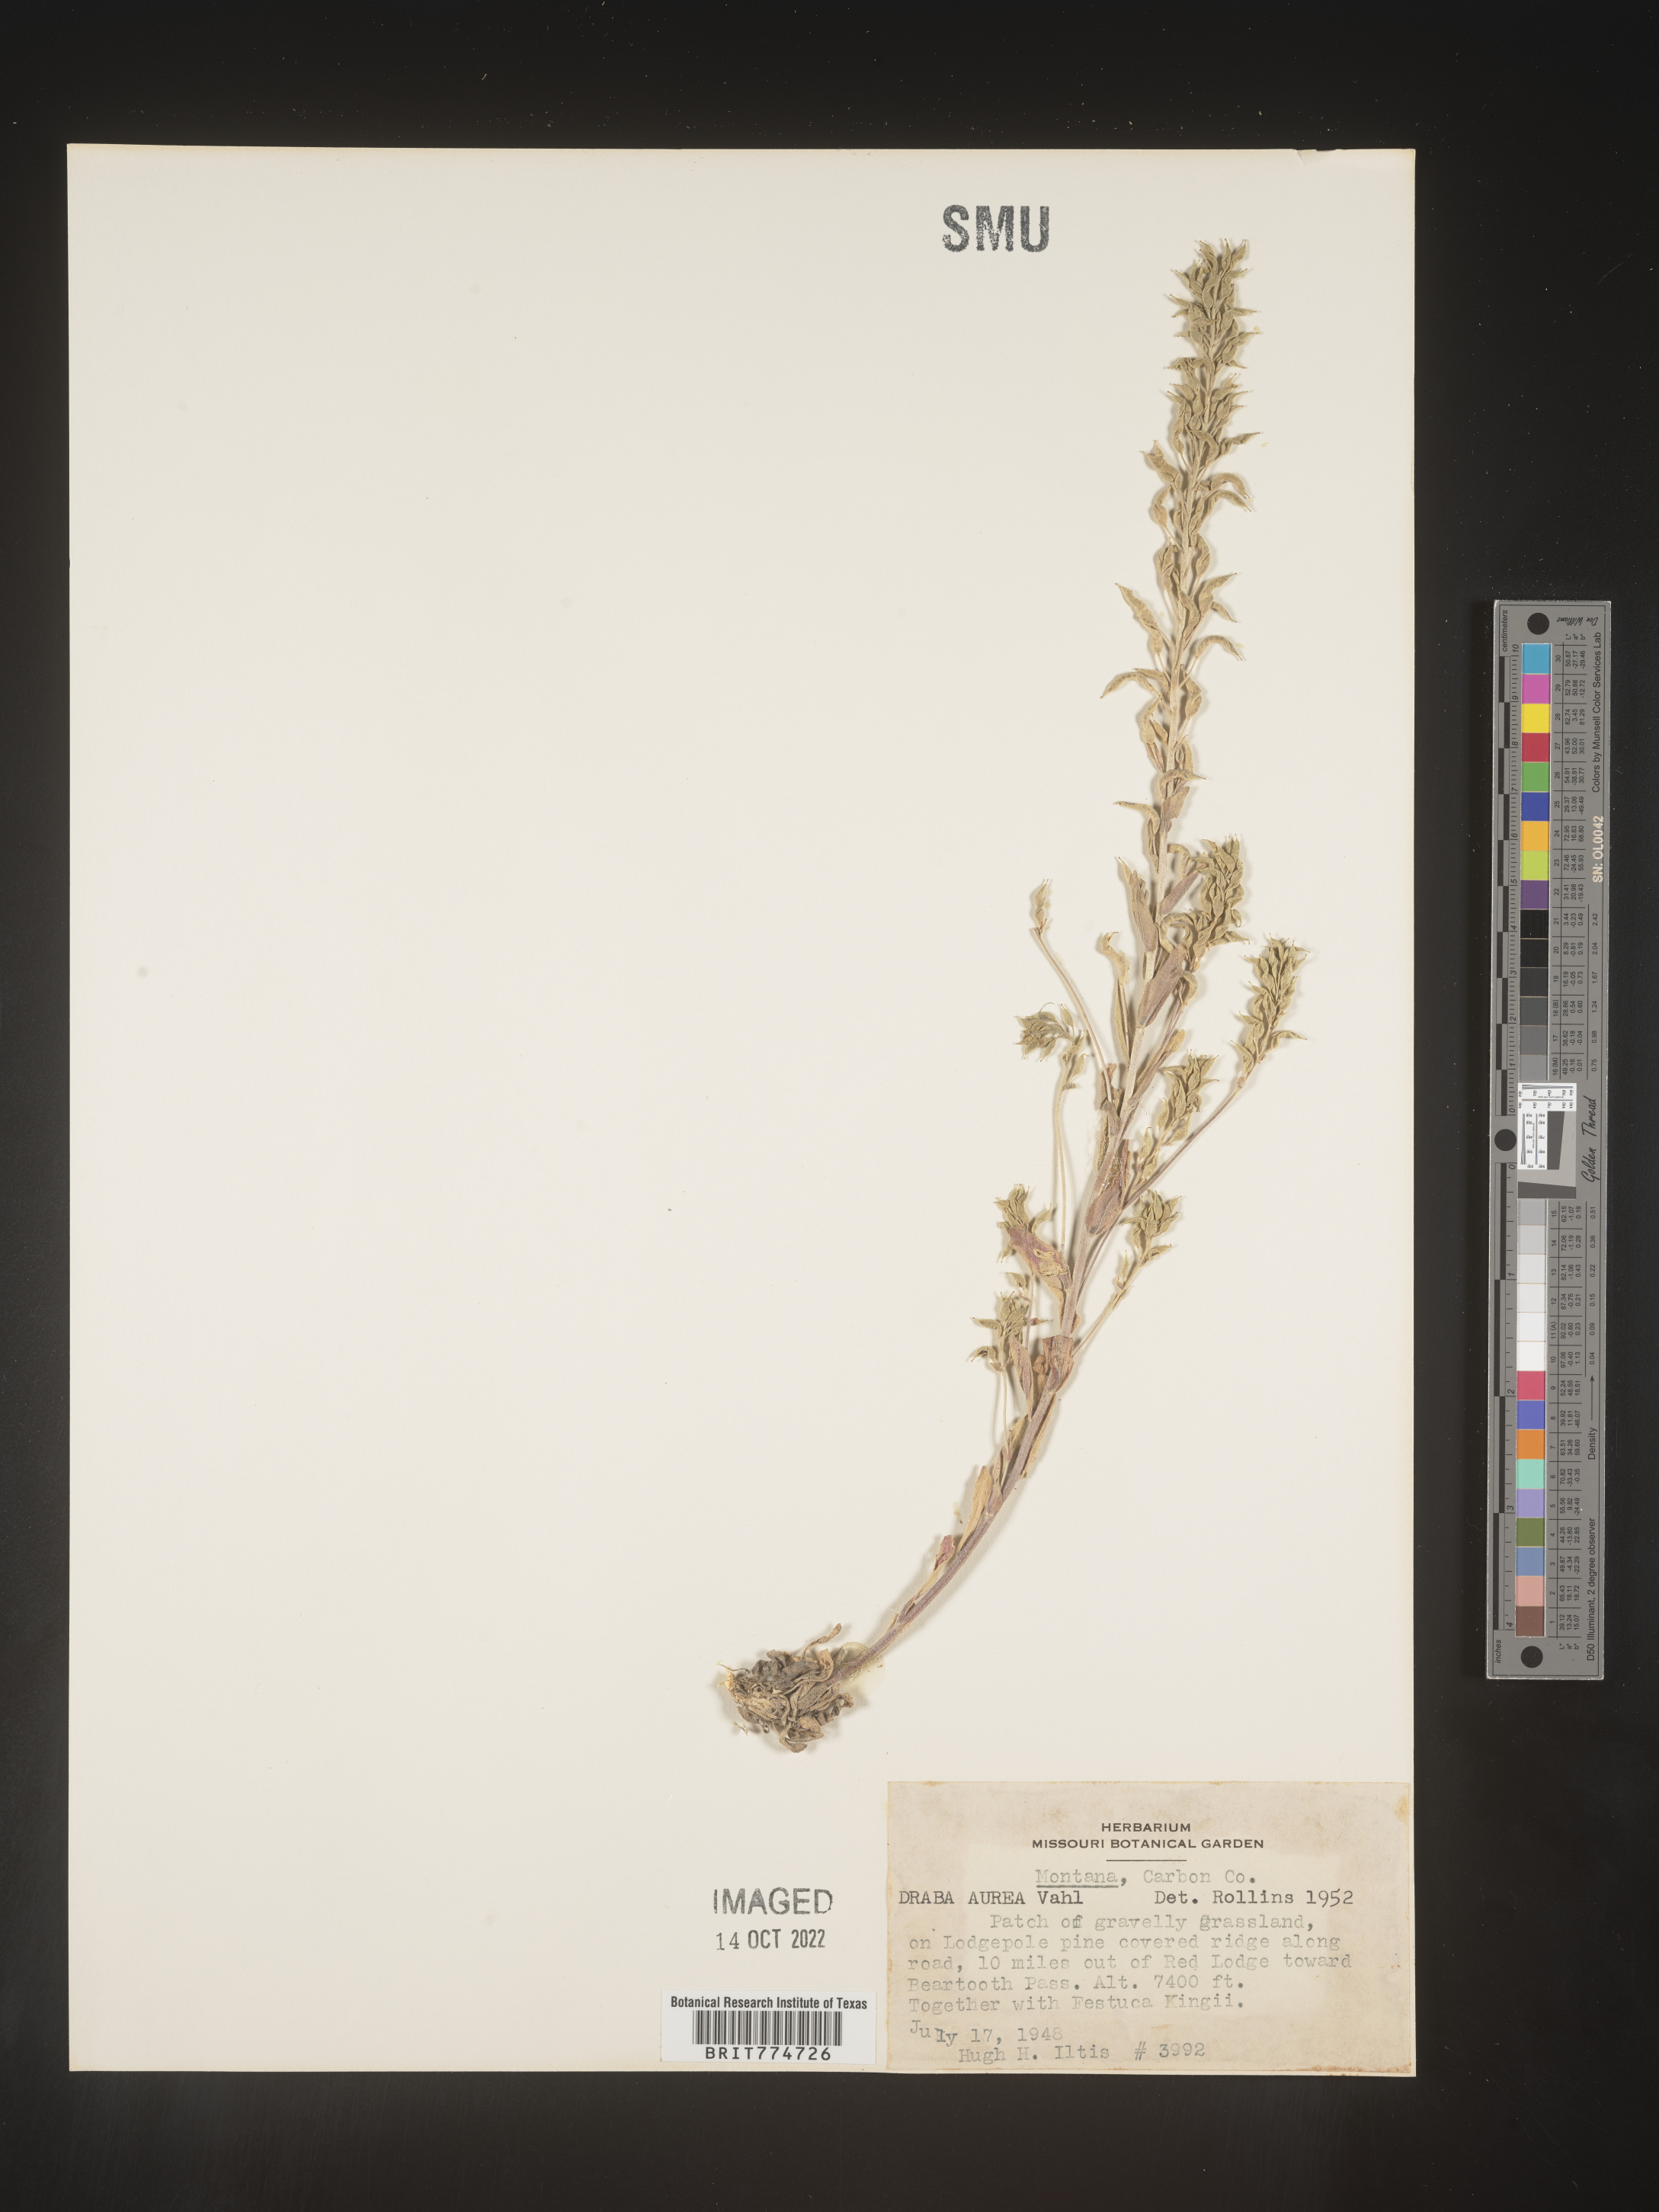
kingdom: Plantae
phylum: Tracheophyta
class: Magnoliopsida
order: Brassicales
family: Brassicaceae
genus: Draba
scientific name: Draba
